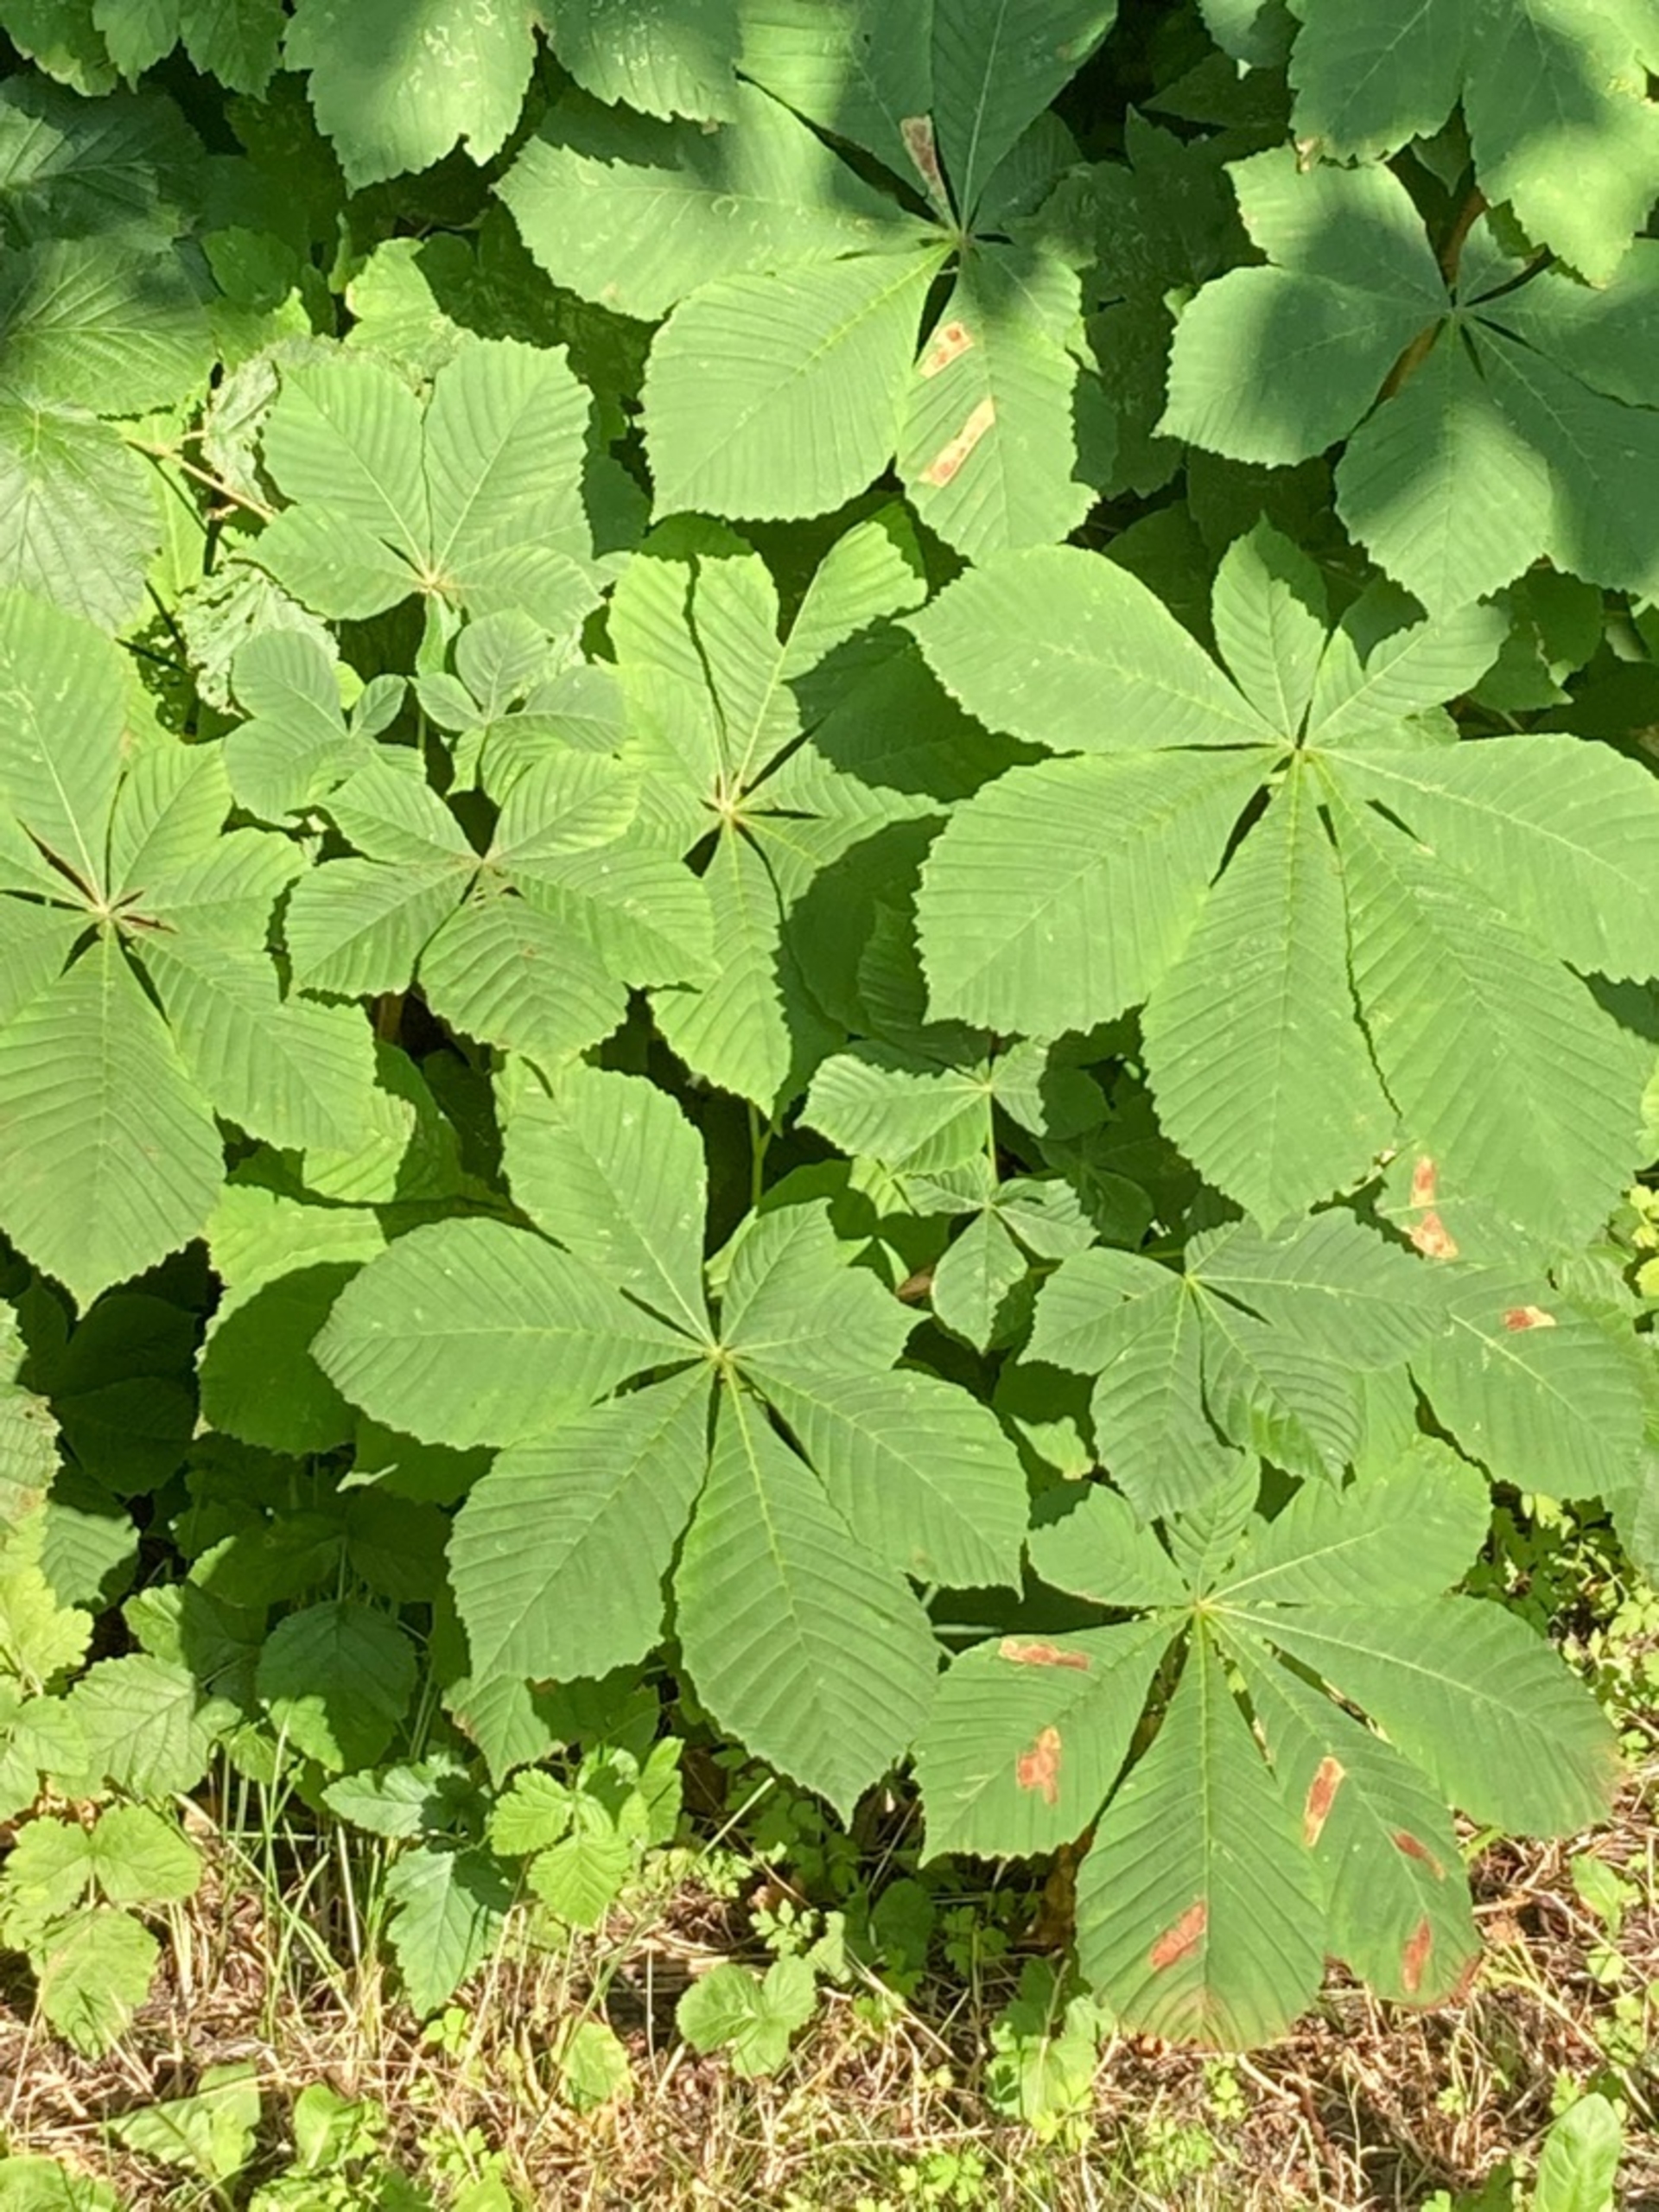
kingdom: Plantae
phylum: Tracheophyta
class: Magnoliopsida
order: Sapindales
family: Sapindaceae
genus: Aesculus
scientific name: Aesculus hippocastanum
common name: Hestekastanie
